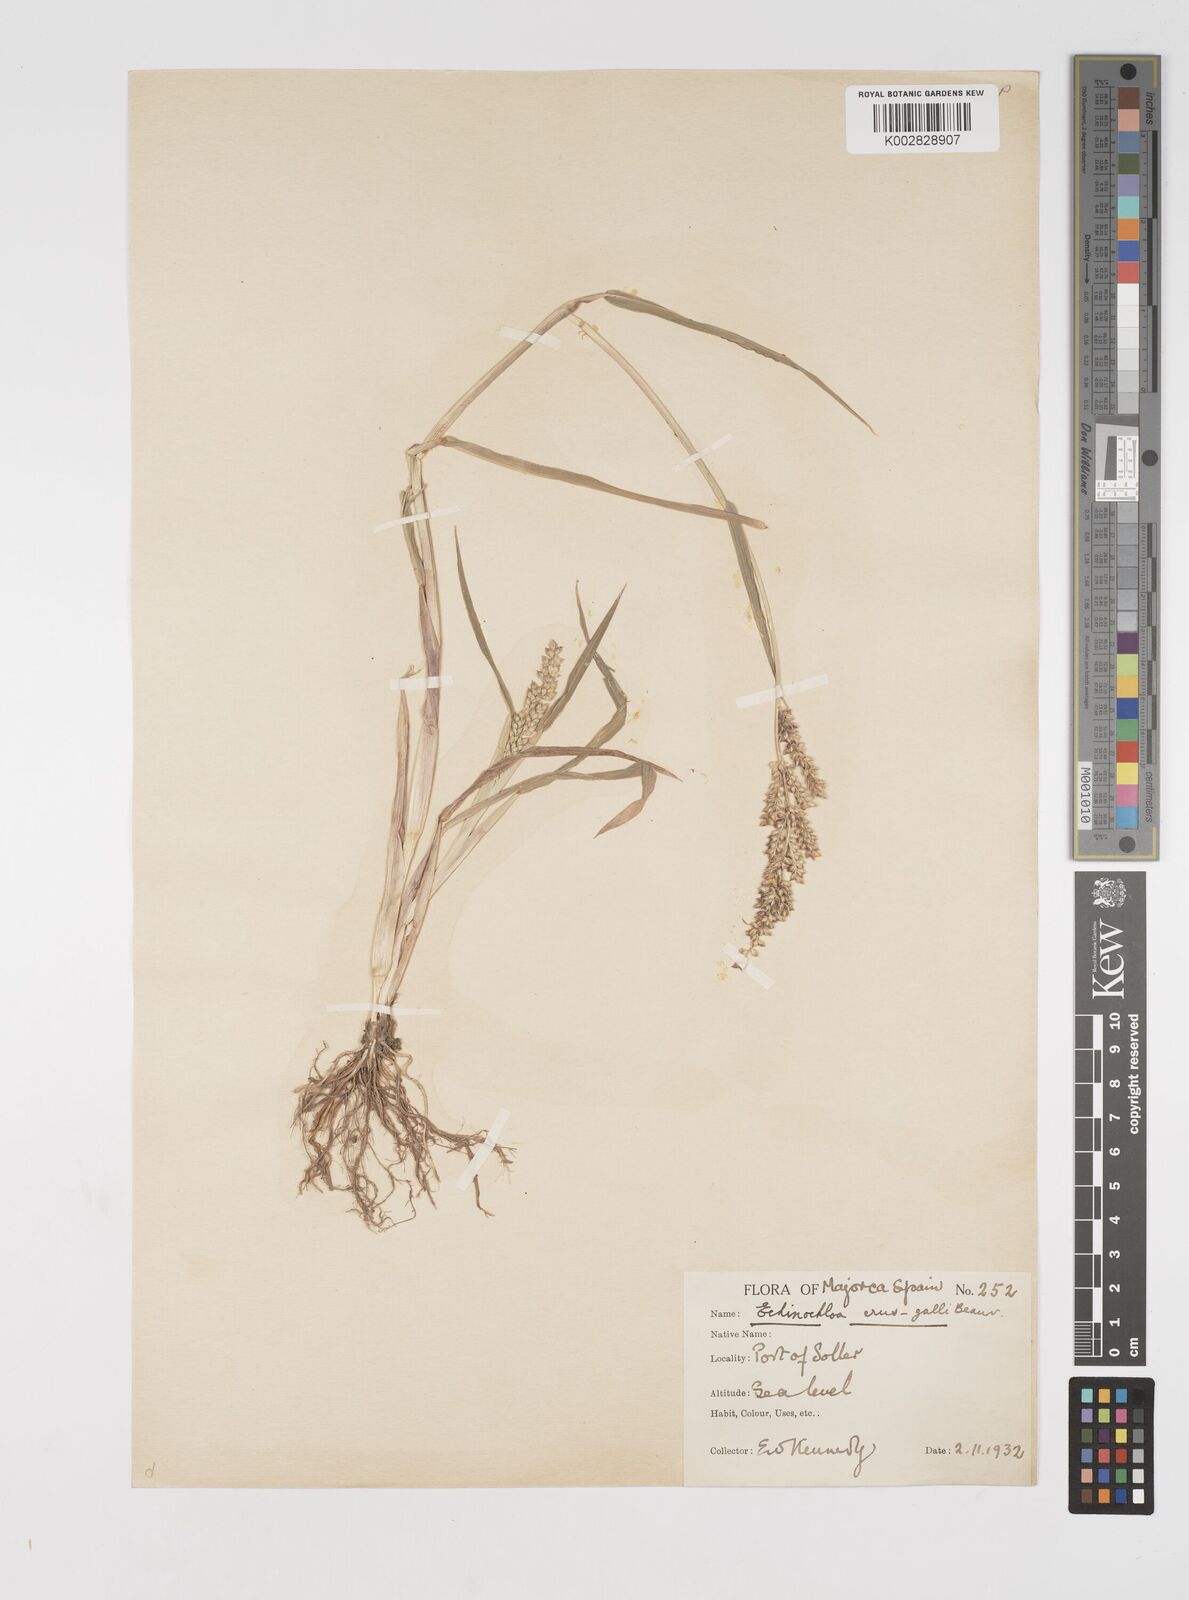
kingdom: Plantae
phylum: Tracheophyta
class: Liliopsida
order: Poales
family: Poaceae
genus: Echinochloa
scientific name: Echinochloa crus-galli
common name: Cockspur
